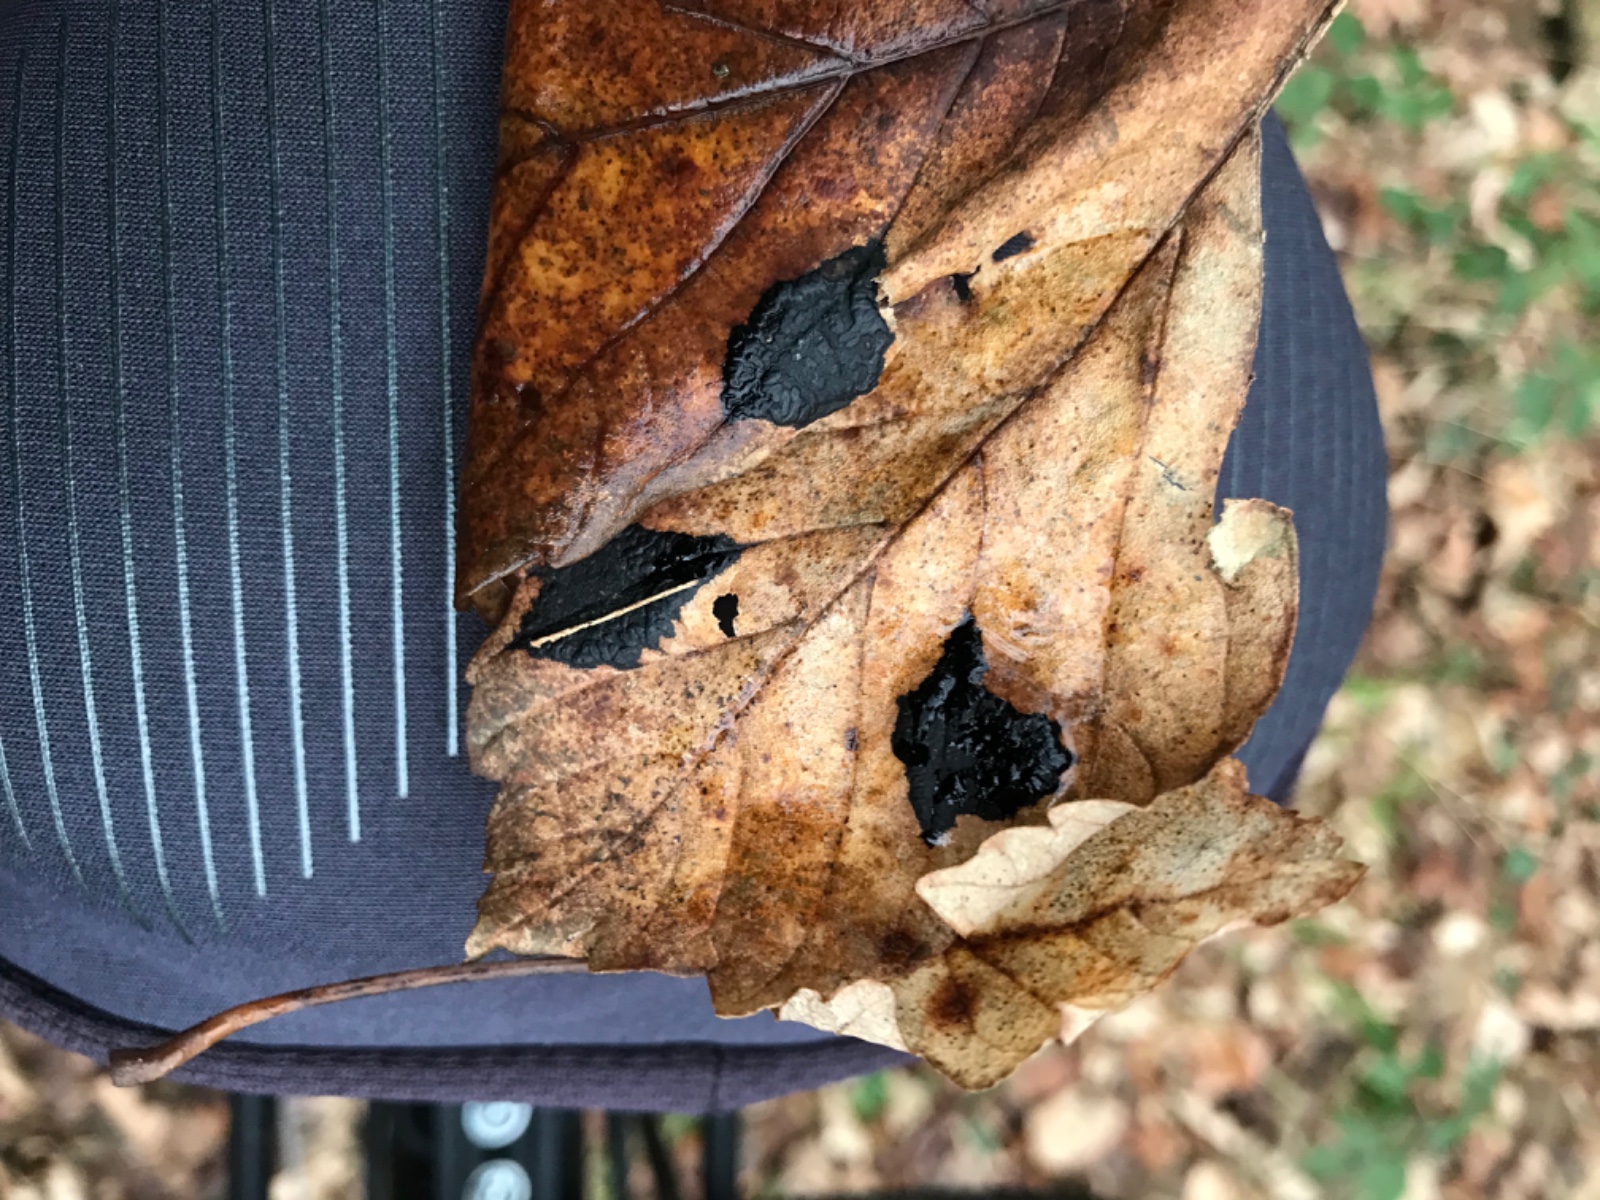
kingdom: Fungi
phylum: Ascomycota
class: Leotiomycetes
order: Rhytismatales
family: Rhytismataceae
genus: Rhytisma
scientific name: Rhytisma acerinum
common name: ahorn-rynkeplet
